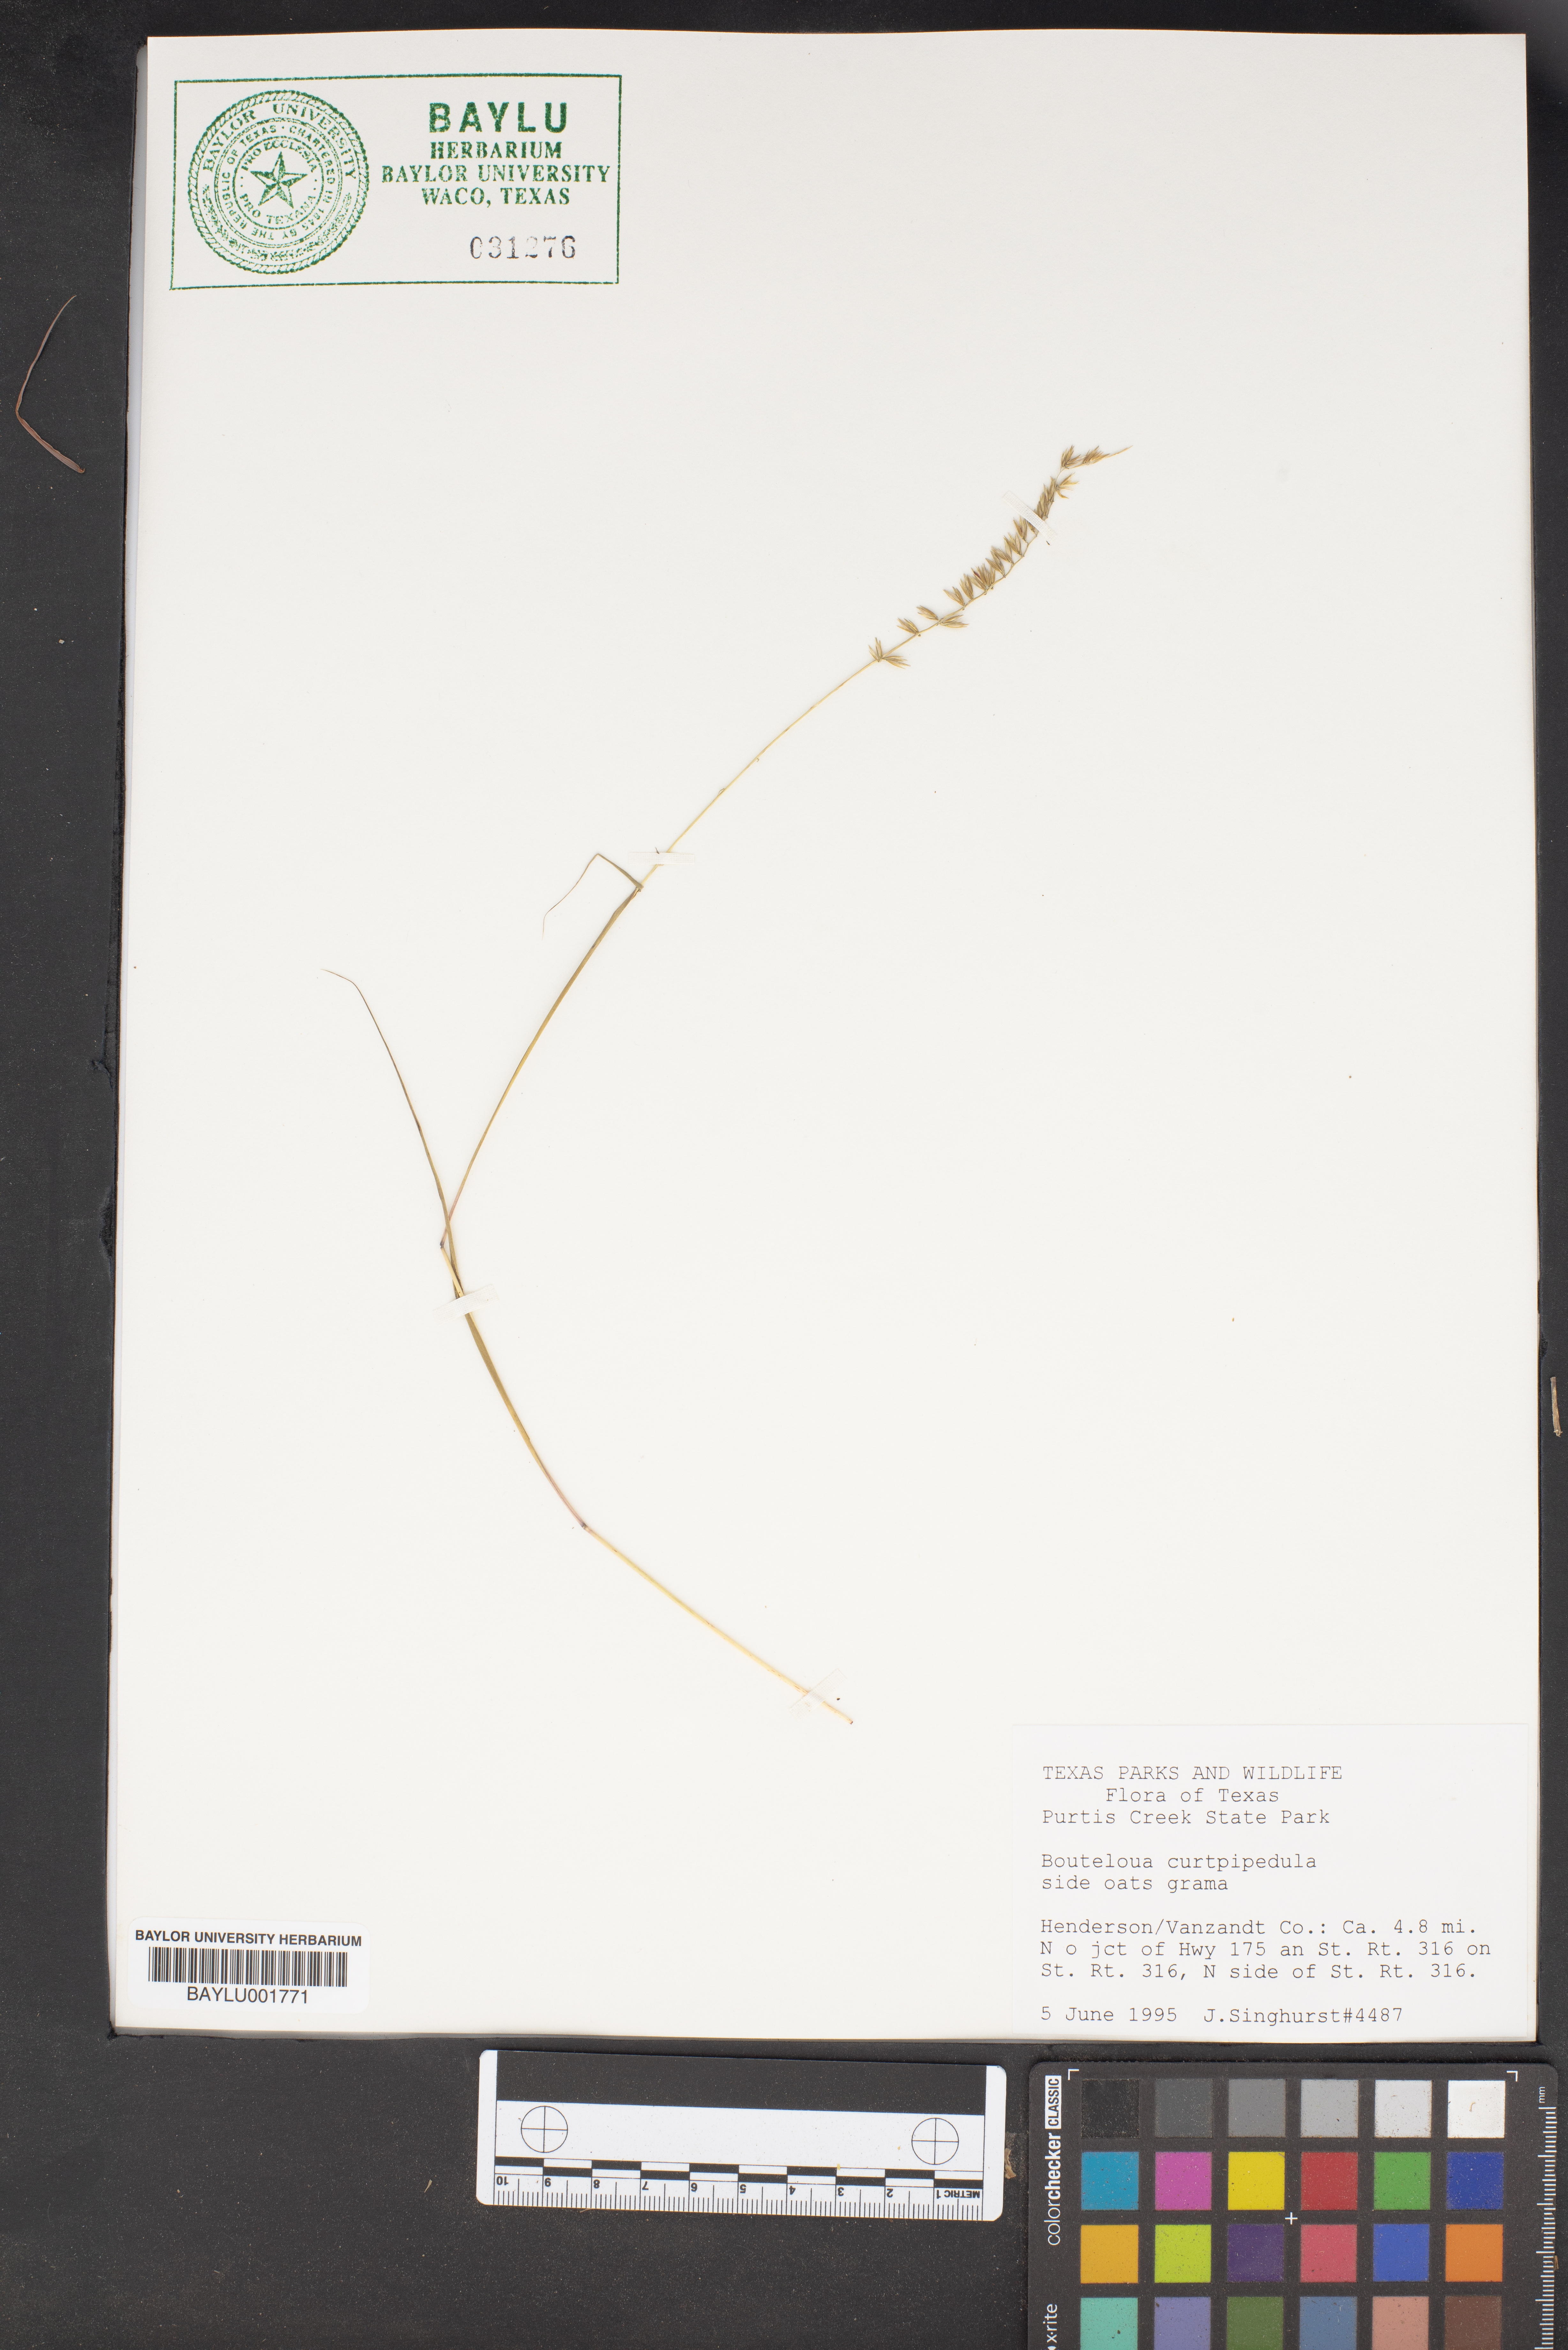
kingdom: Plantae
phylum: Tracheophyta
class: Liliopsida
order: Poales
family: Poaceae
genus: Bouteloua
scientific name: Bouteloua curtipendula
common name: Side-oats grama
